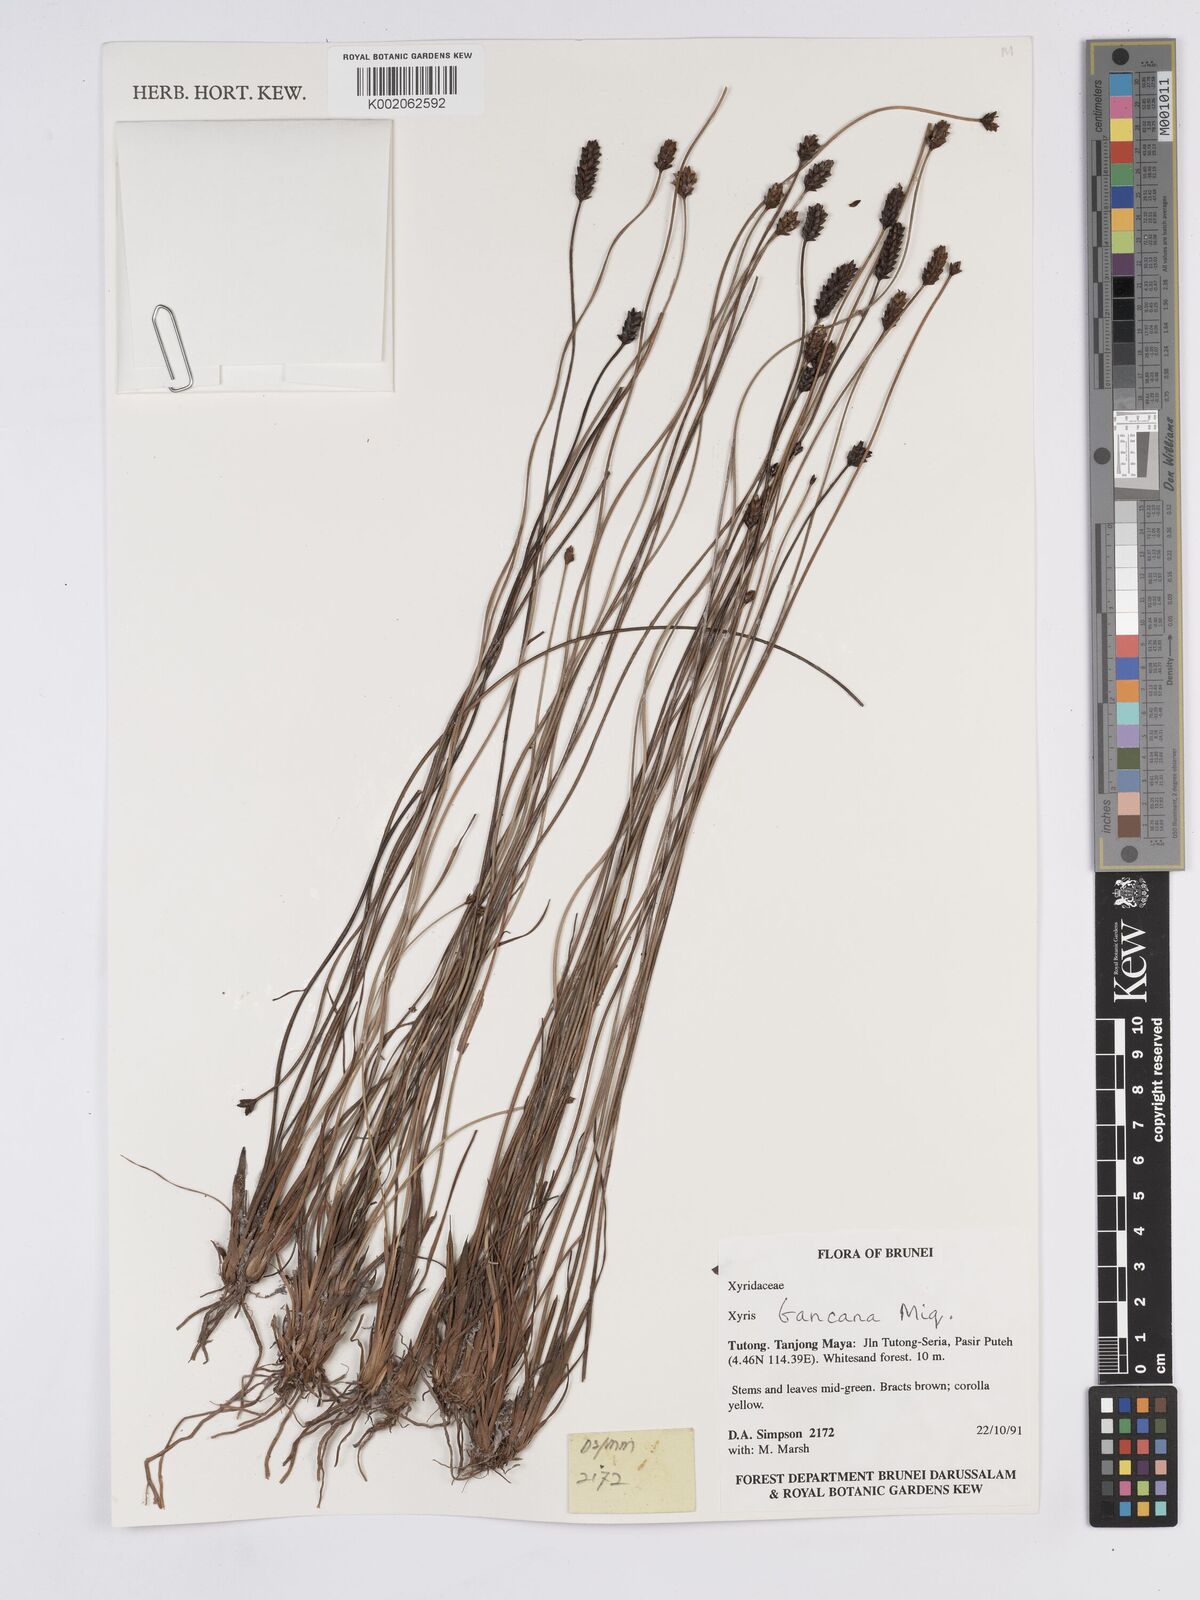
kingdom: Plantae
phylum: Tracheophyta
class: Liliopsida
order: Poales
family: Xyridaceae
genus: Xyris
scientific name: Xyris bancana
